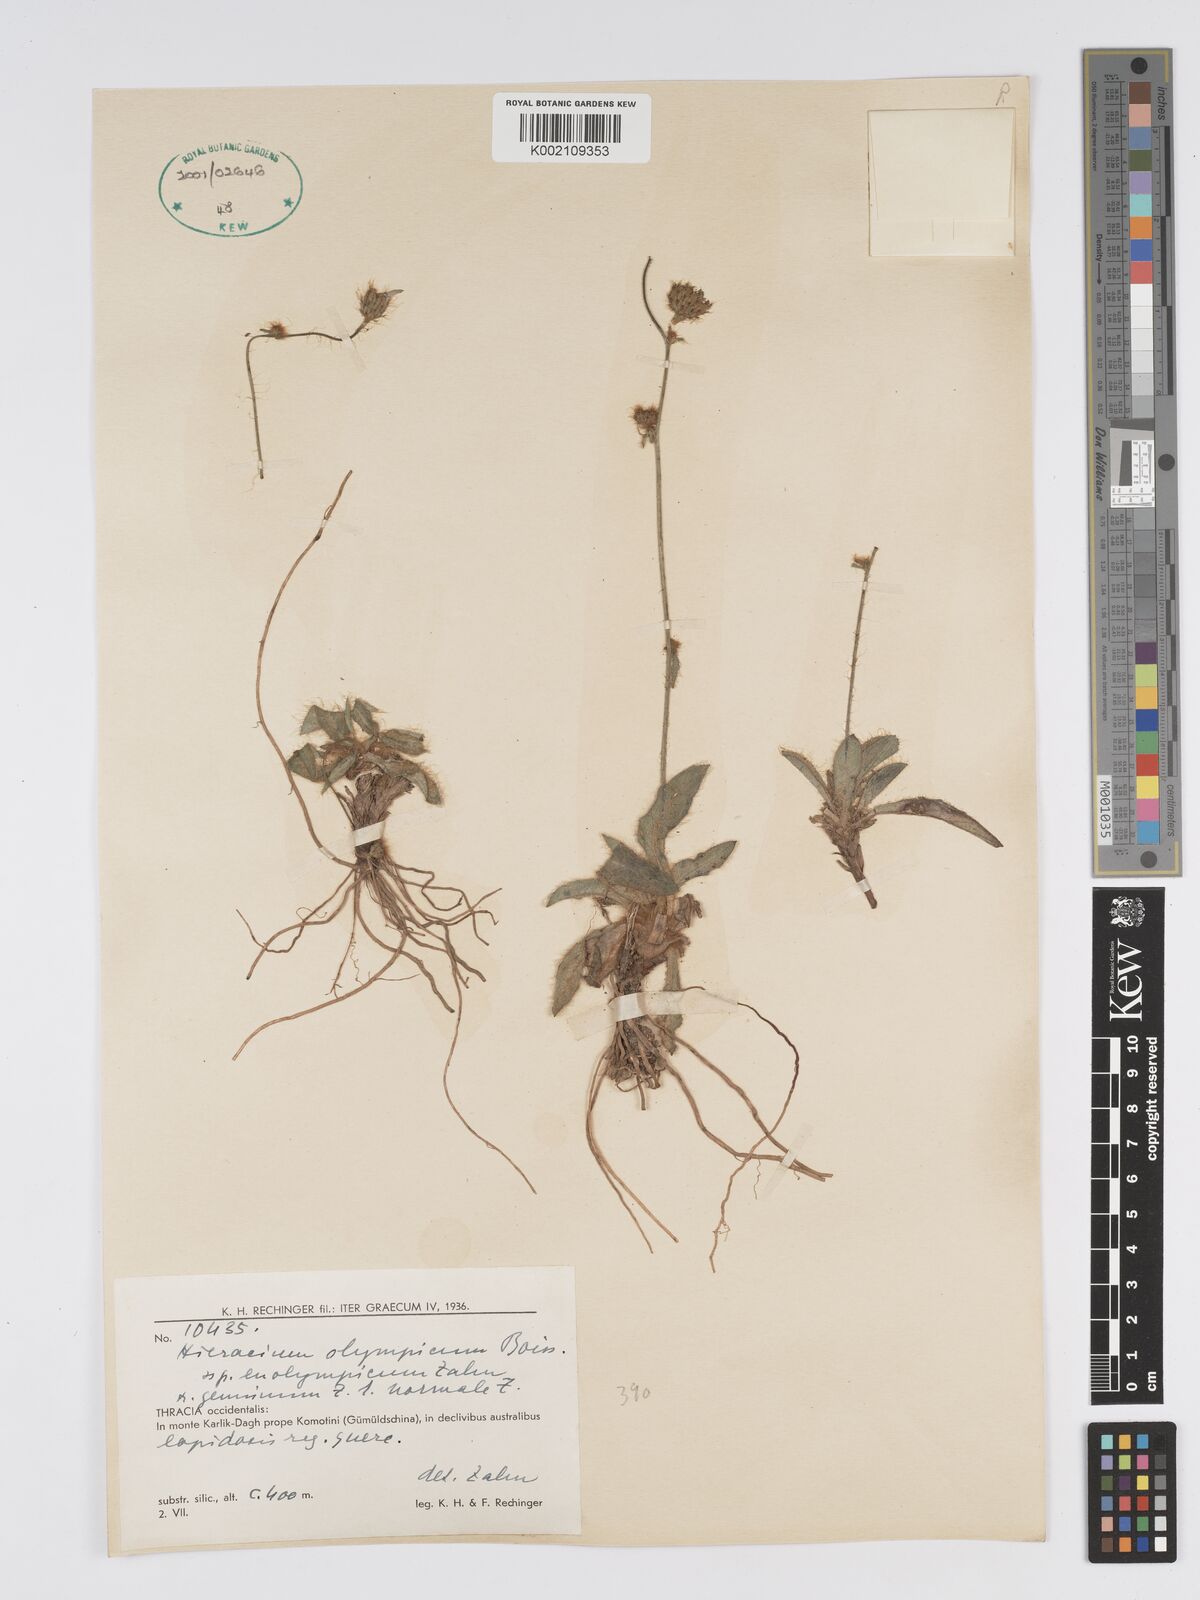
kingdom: Plantae
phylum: Tracheophyta
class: Magnoliopsida
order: Asterales
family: Asteraceae
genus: Hieracium
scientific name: Hieracium olympicum
